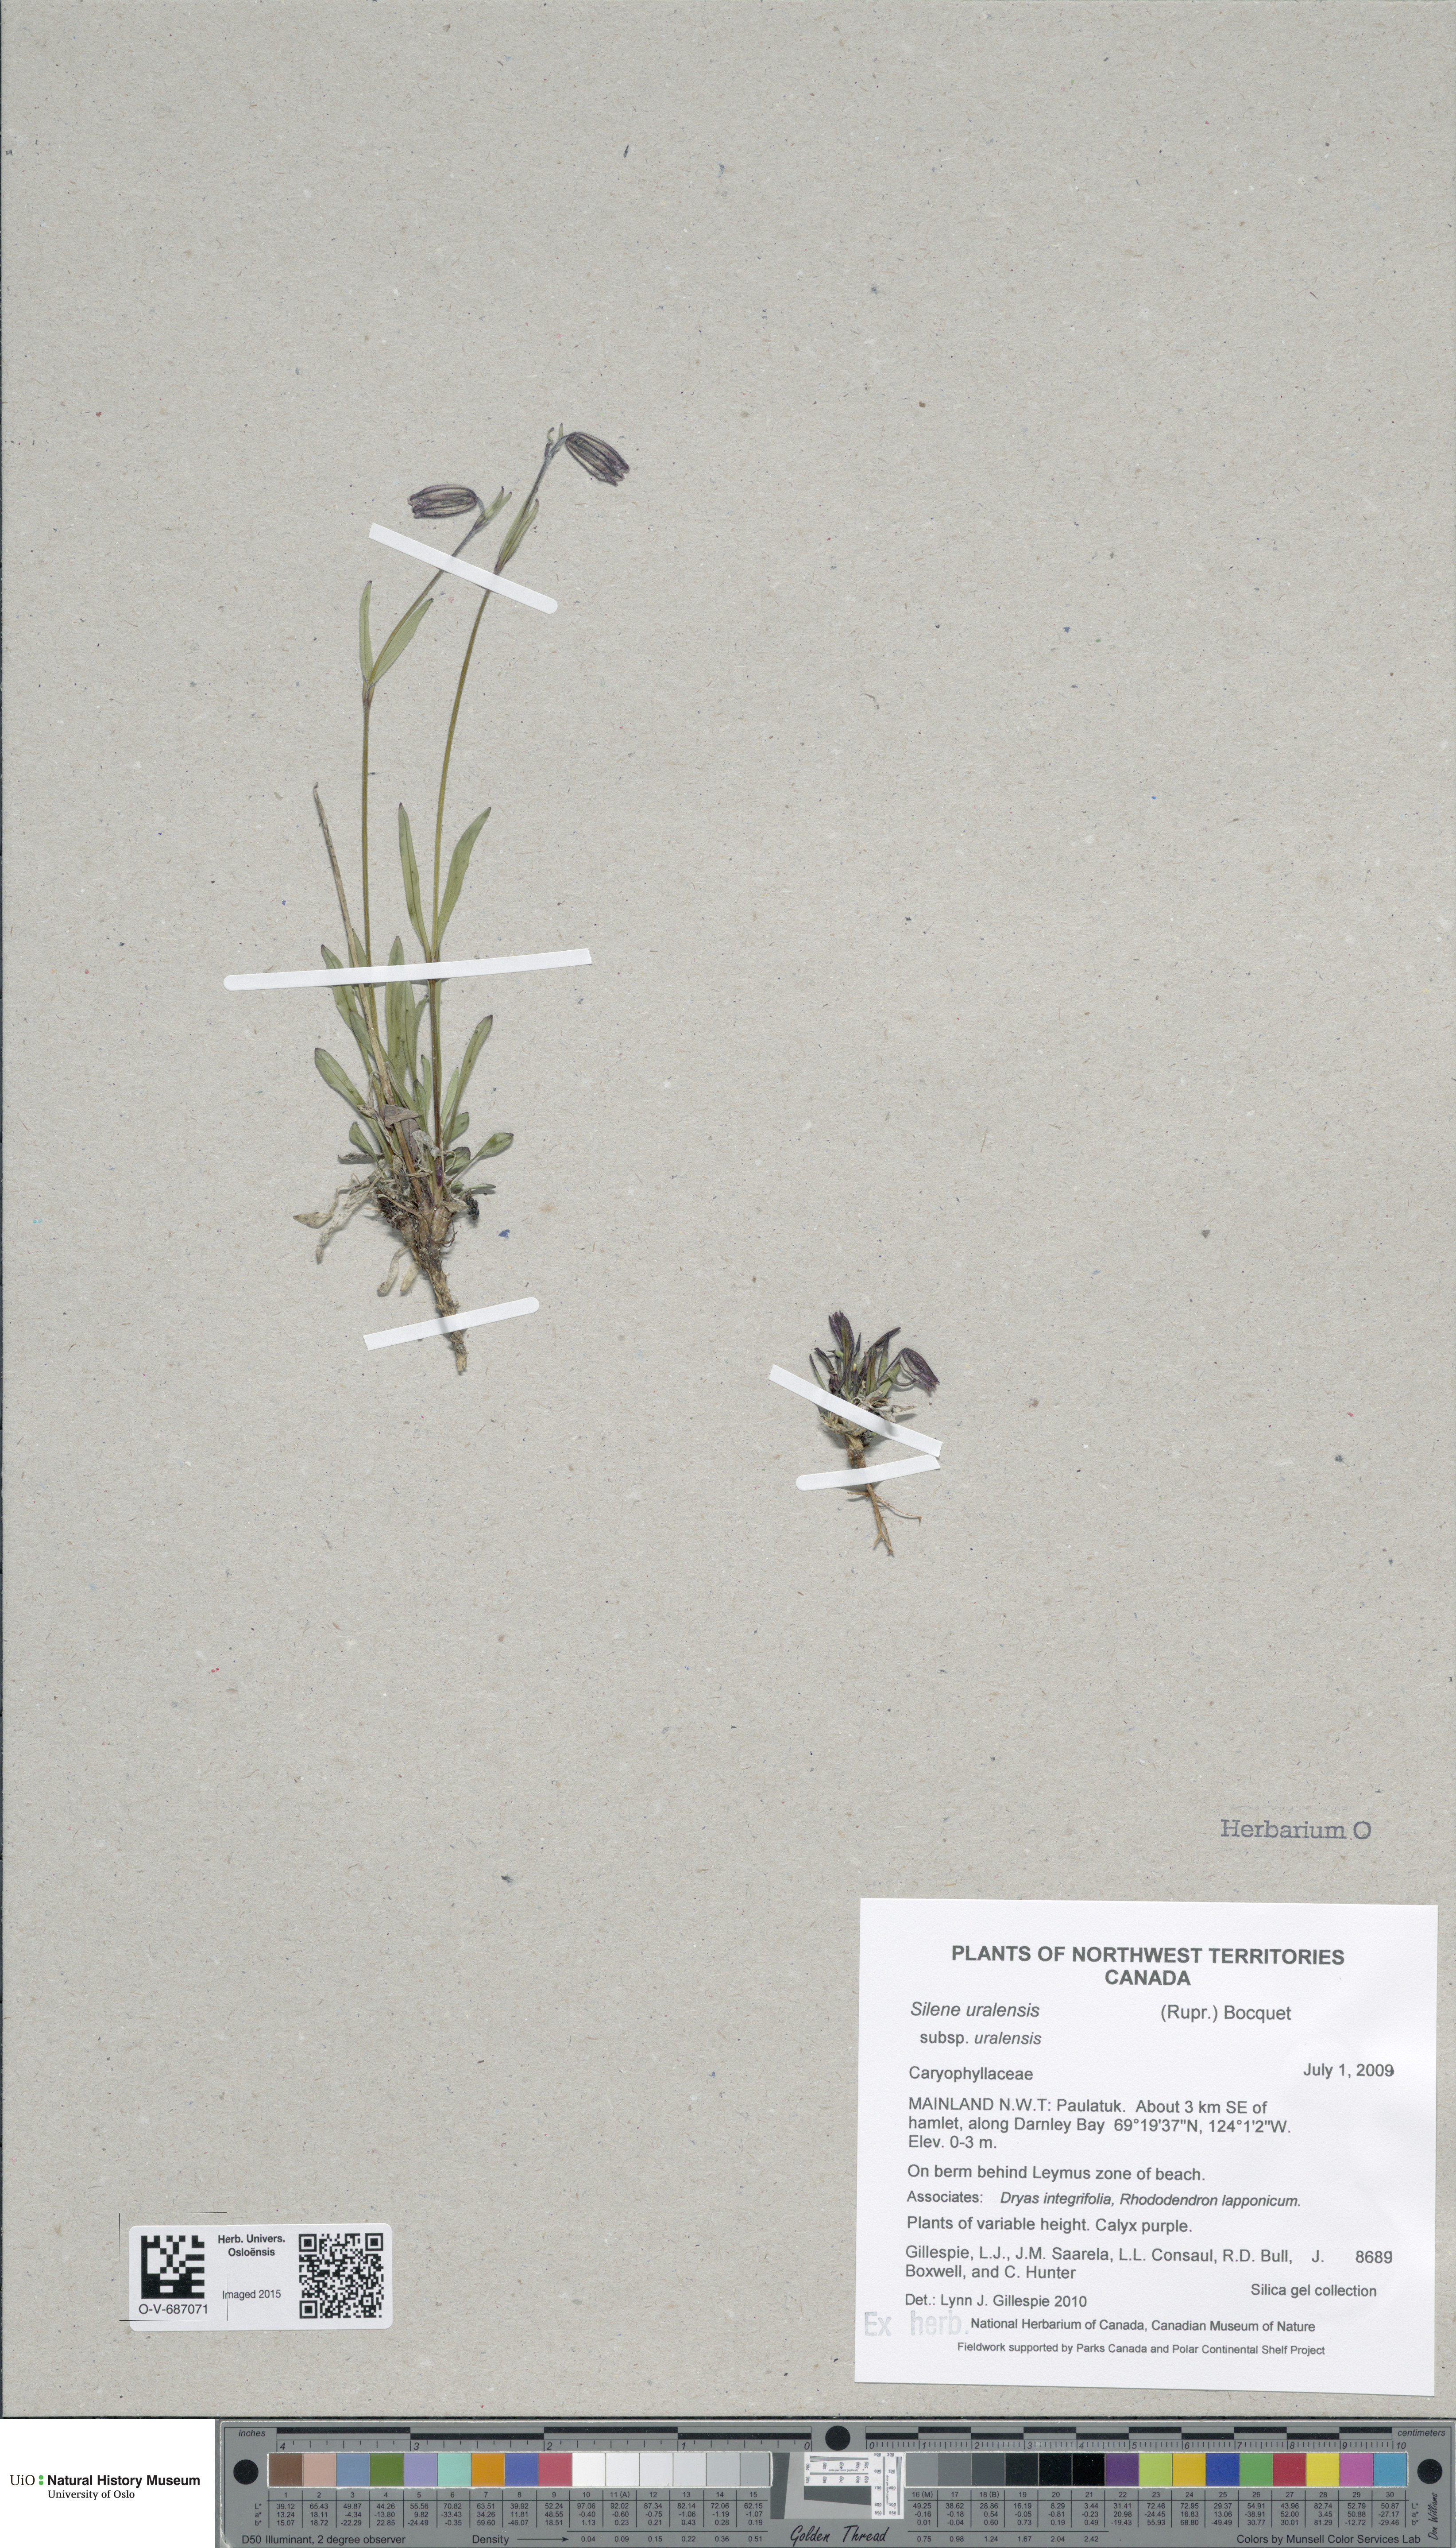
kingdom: Plantae
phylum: Tracheophyta
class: Magnoliopsida
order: Caryophyllales
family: Caryophyllaceae
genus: Silene
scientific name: Silene uralensis
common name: Nodding campion
